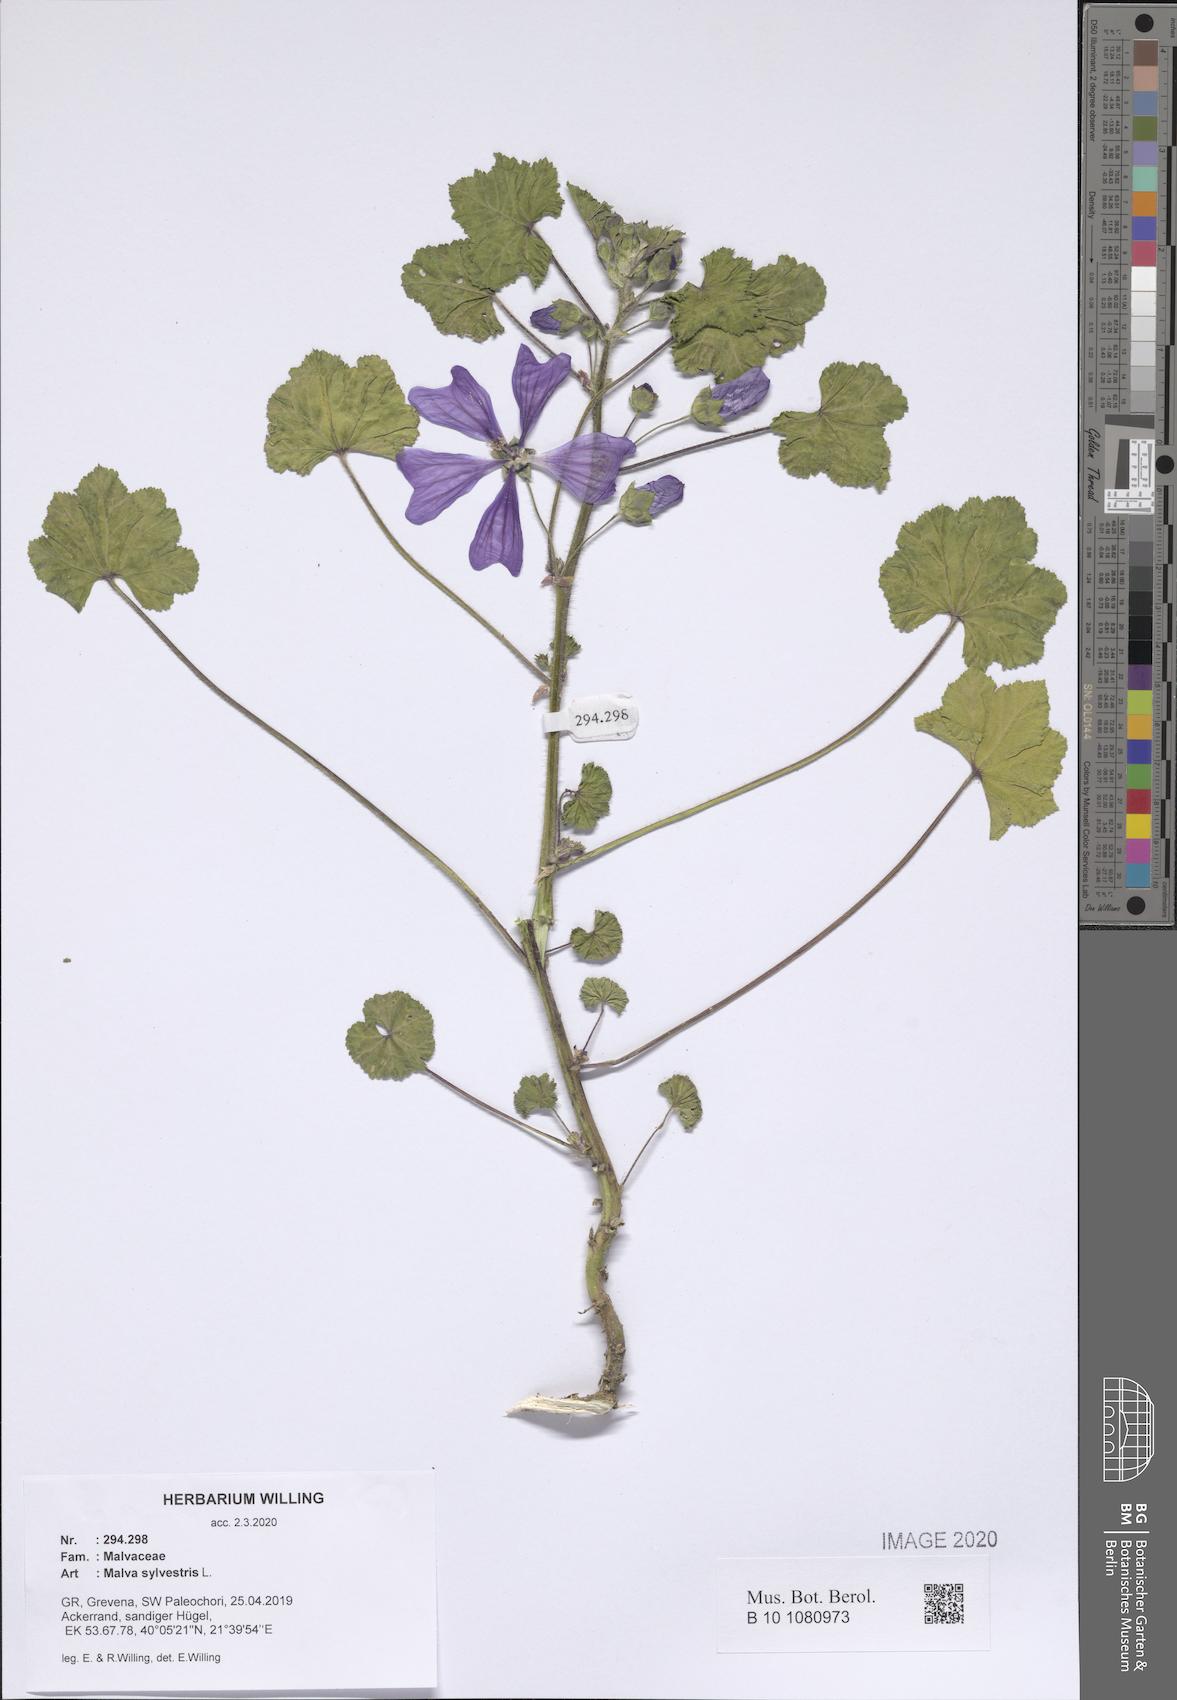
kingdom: Plantae
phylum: Tracheophyta
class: Magnoliopsida
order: Malvales
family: Malvaceae
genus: Malva
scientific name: Malva sylvestris
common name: Common mallow
